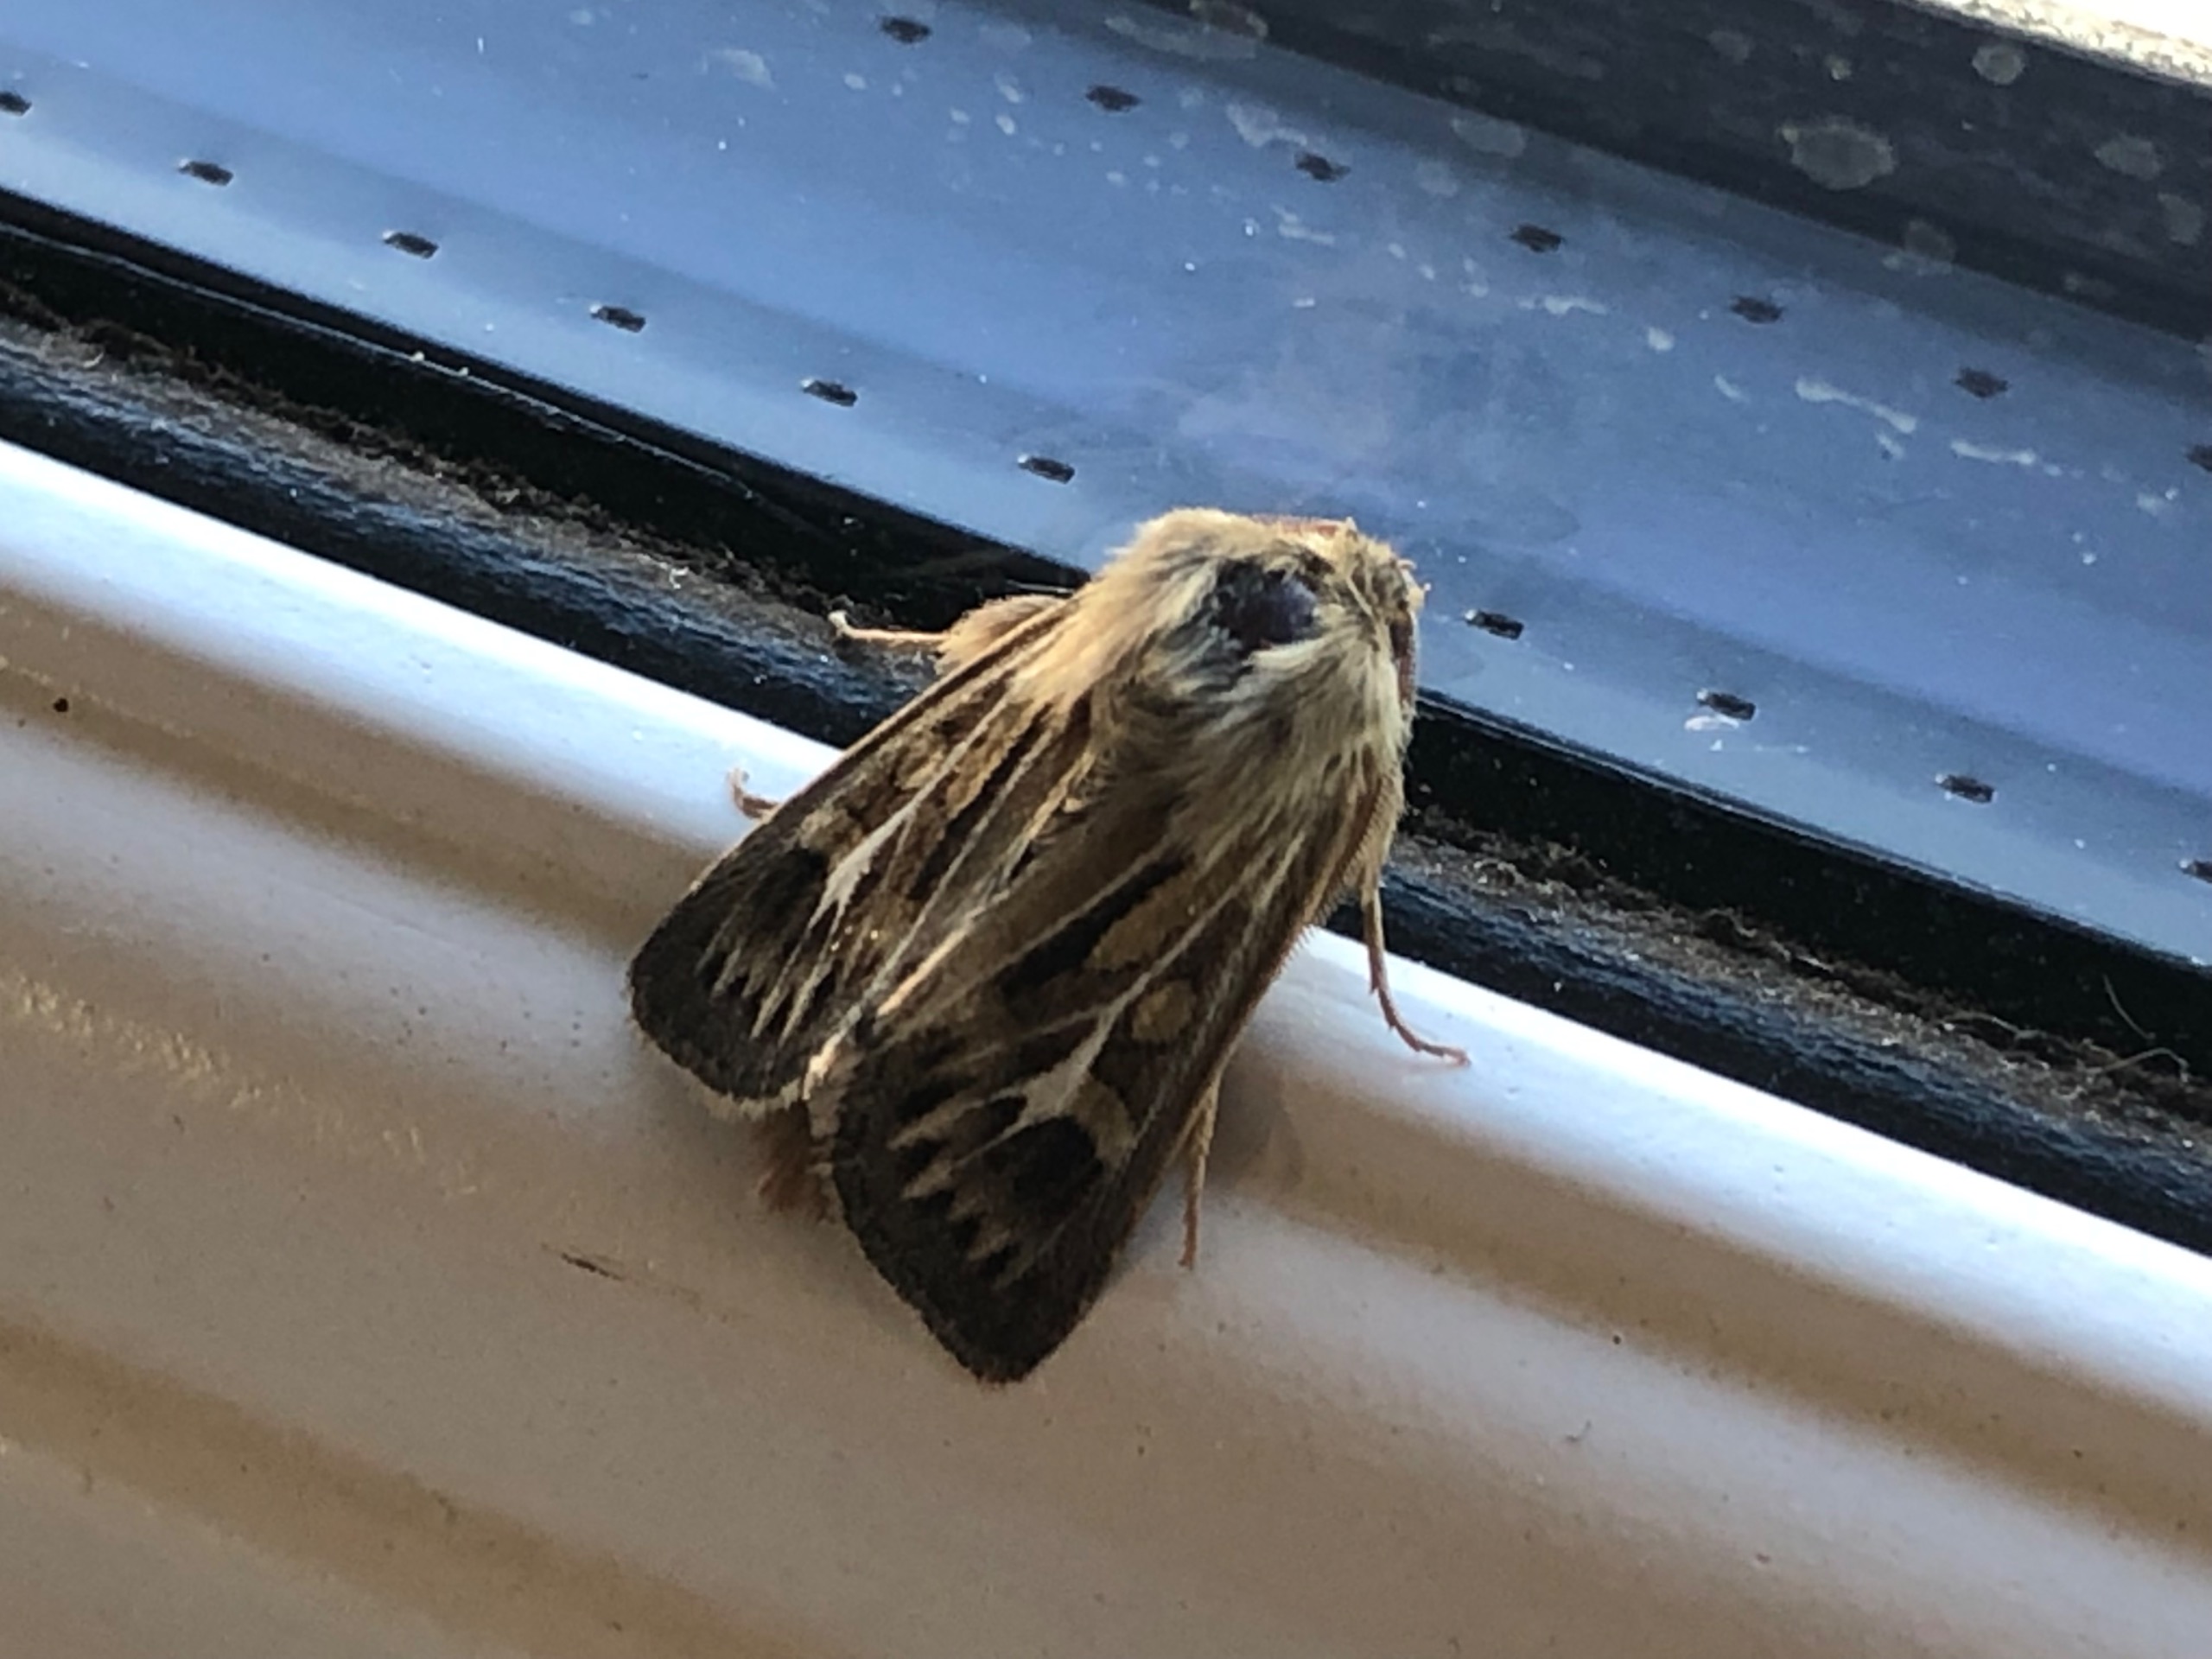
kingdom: Animalia
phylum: Arthropoda
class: Insecta
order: Lepidoptera
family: Noctuidae
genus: Cerapteryx
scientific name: Cerapteryx graminis
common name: Mosebunkeugle
